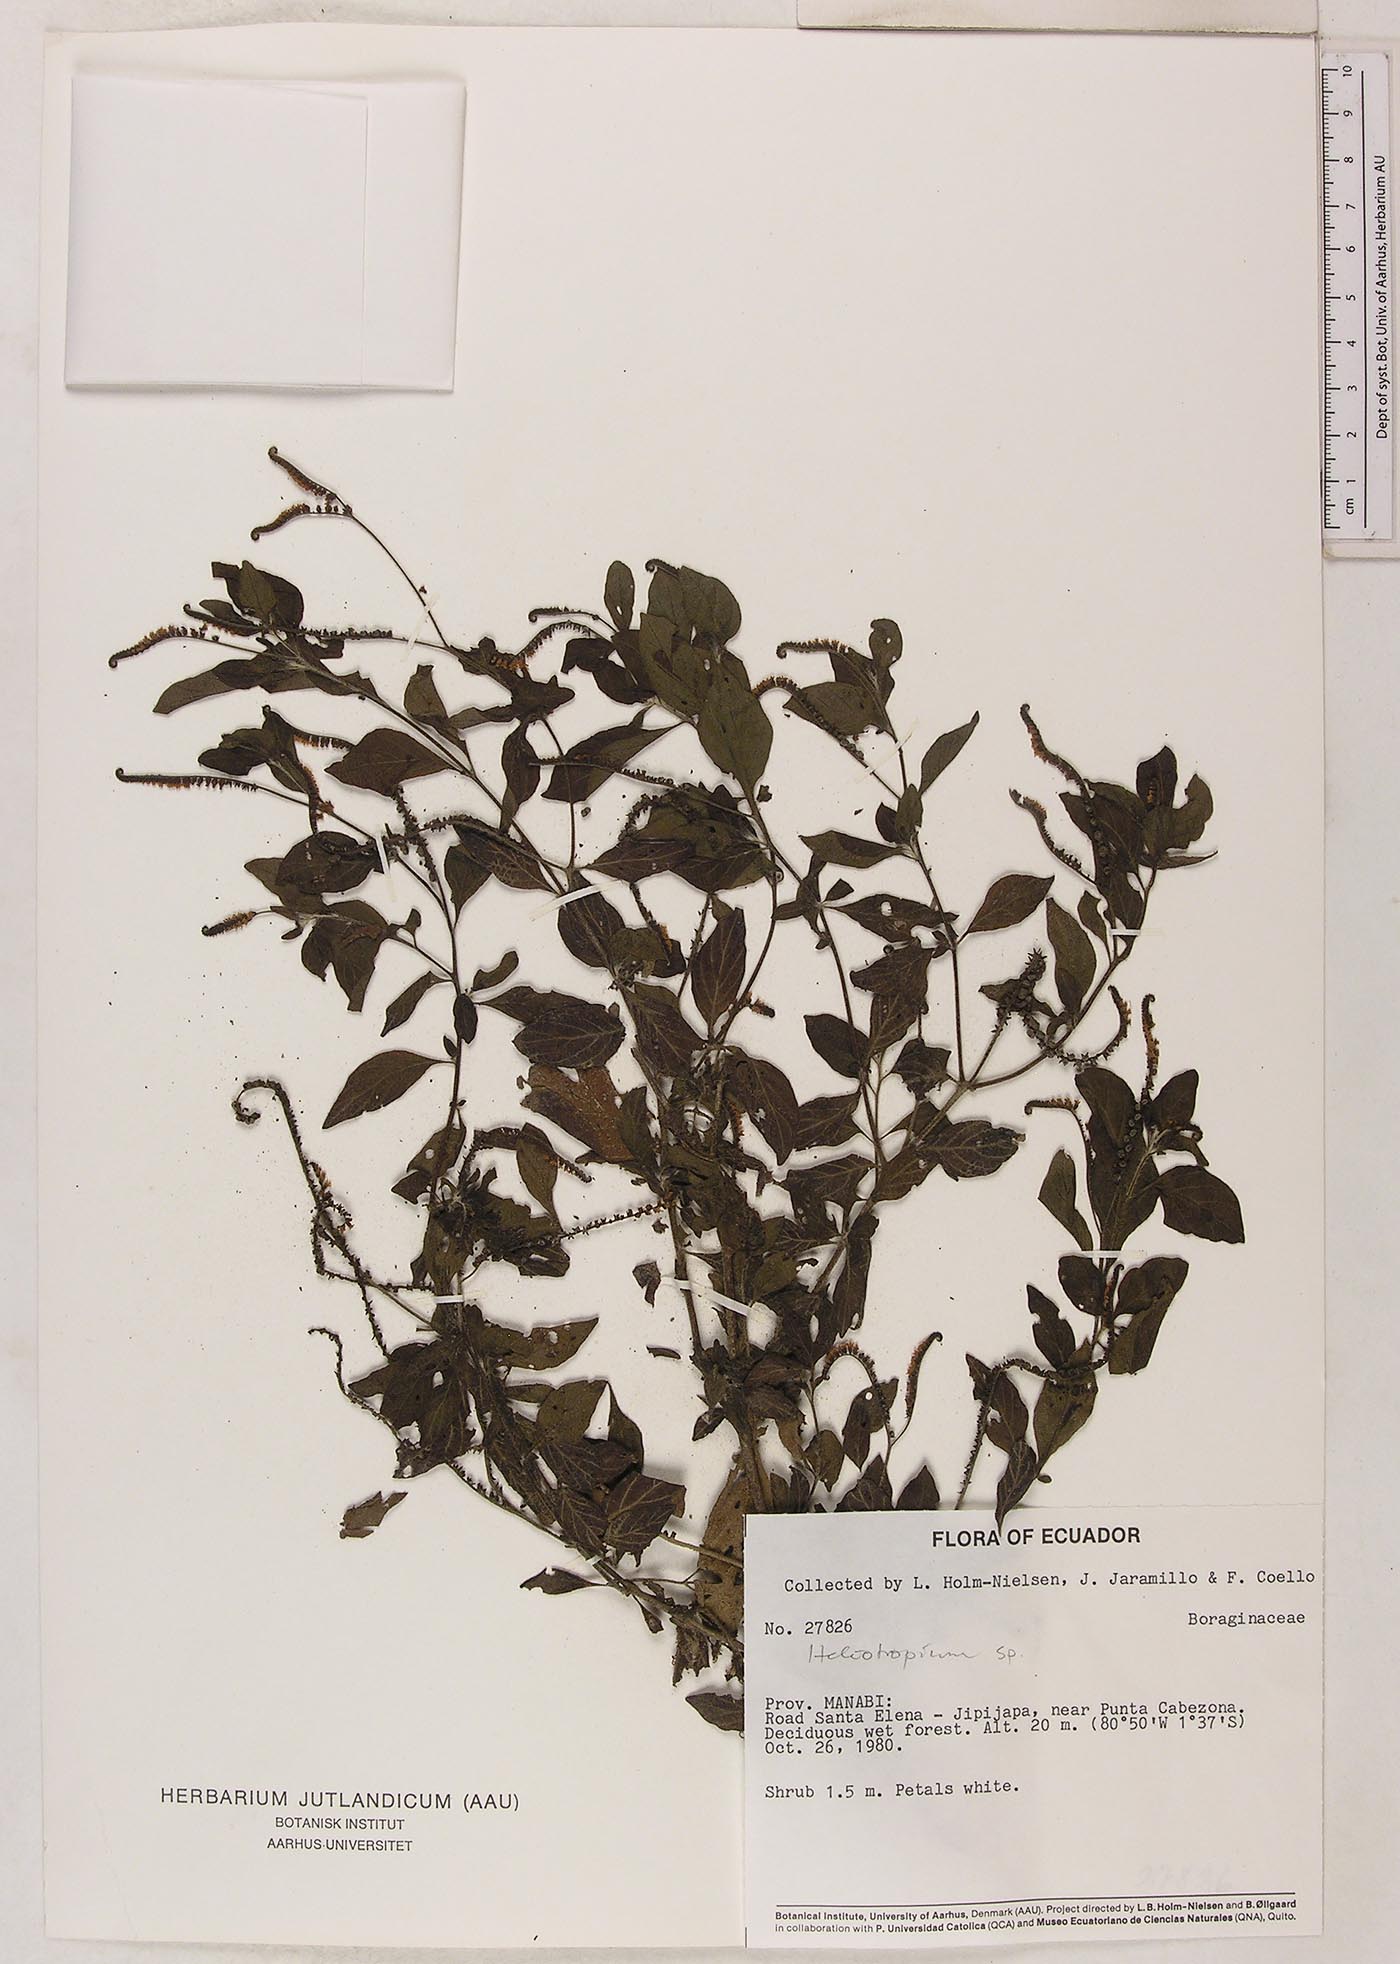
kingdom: Plantae
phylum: Tracheophyta
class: Magnoliopsida
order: Boraginales
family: Heliotropiaceae
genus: Heliotropium
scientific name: Heliotropium angiospermum
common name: Eye bright
